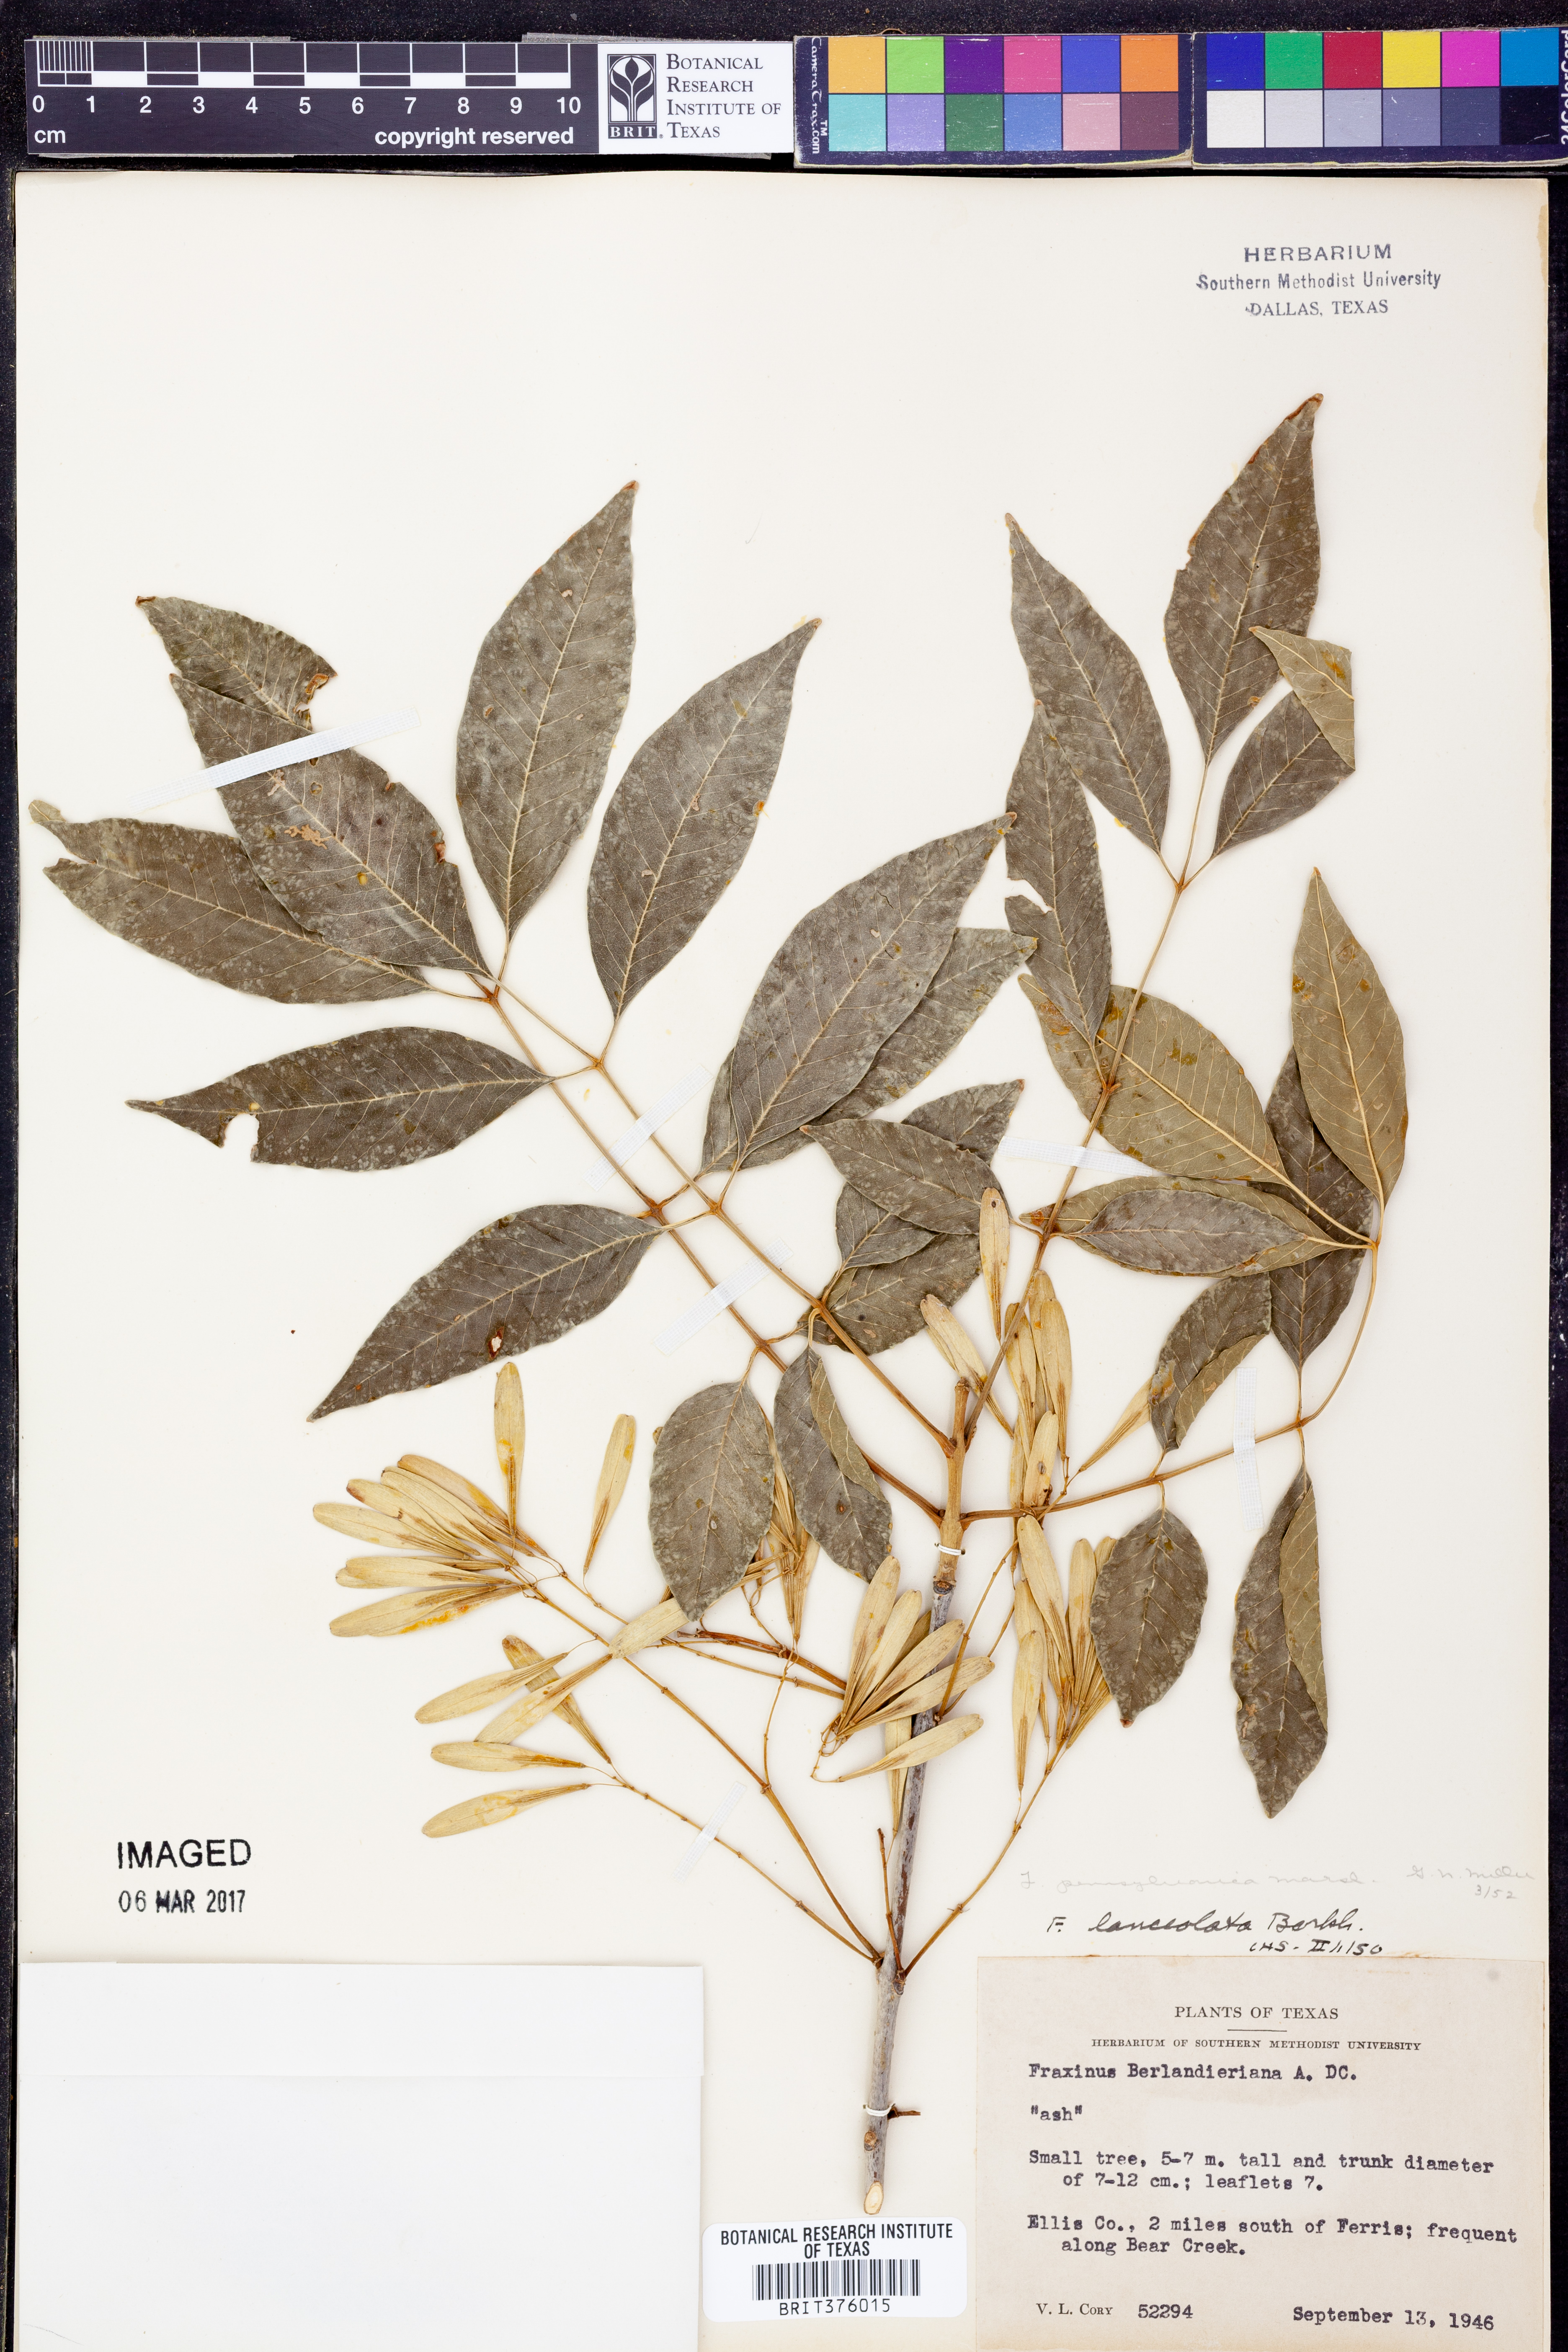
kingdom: Plantae
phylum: Tracheophyta
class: Magnoliopsida
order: Lamiales
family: Oleaceae
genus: Fraxinus
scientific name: Fraxinus pennsylvanica
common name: Green ash
